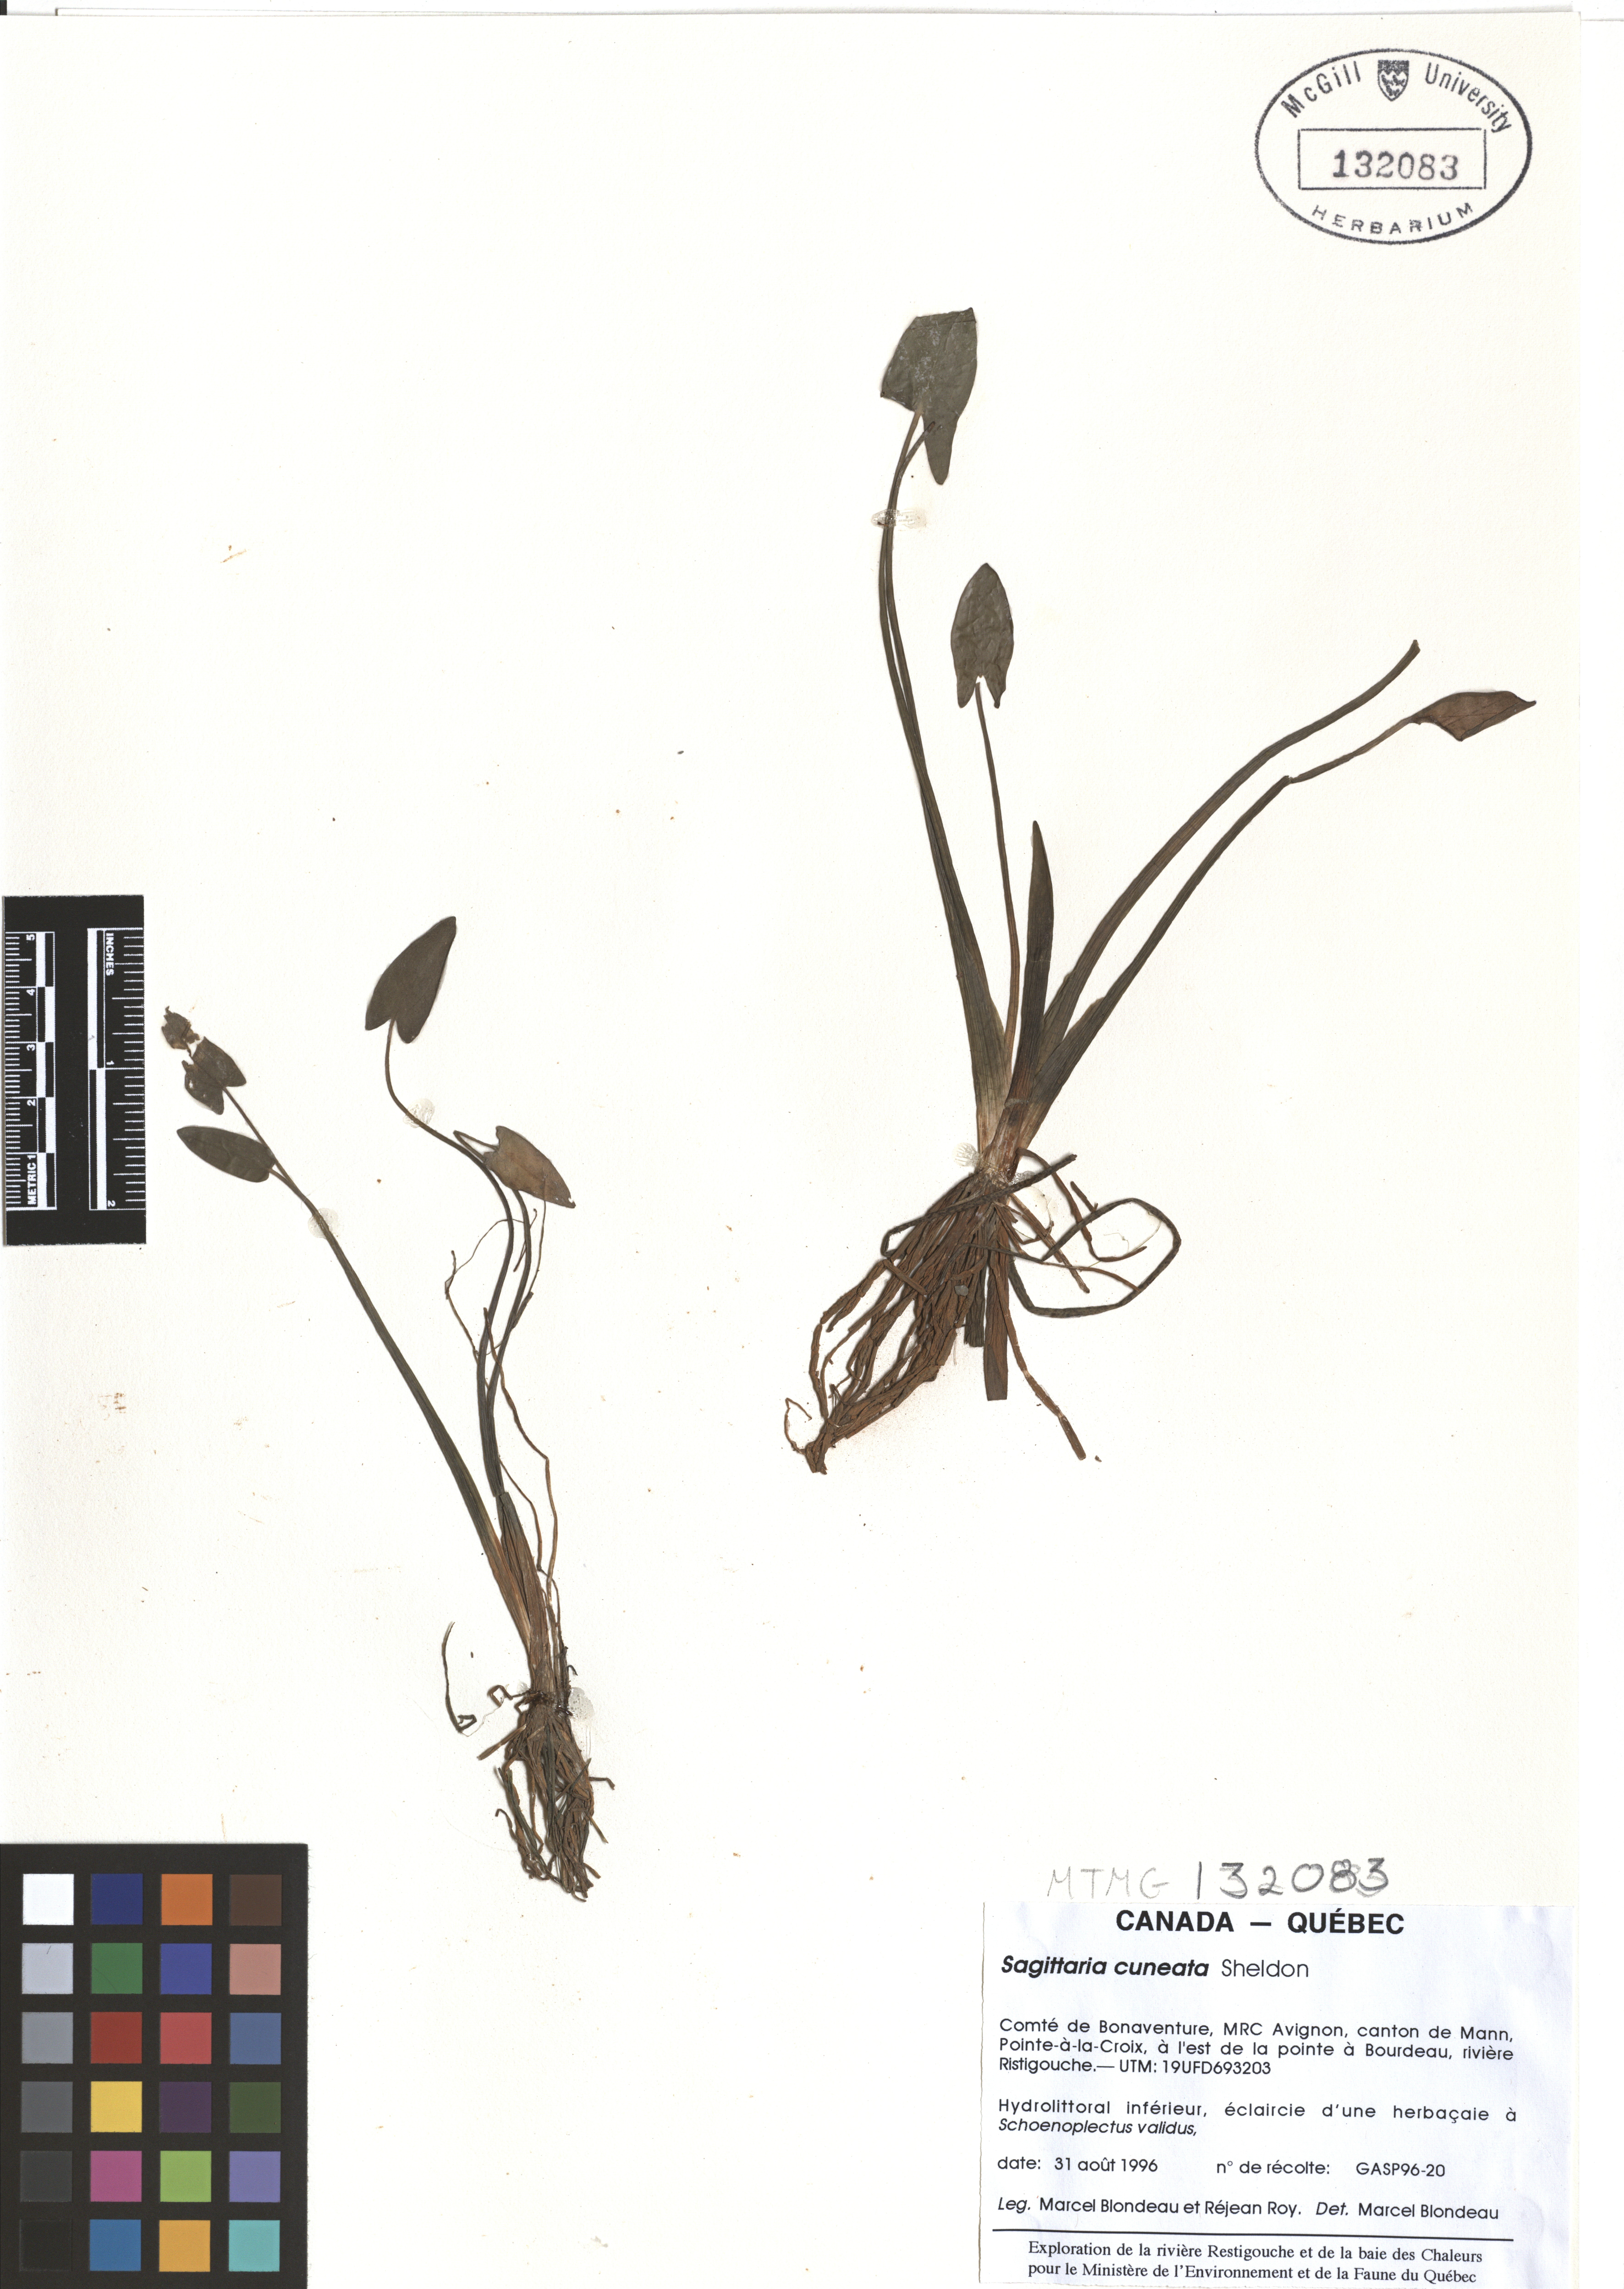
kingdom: Plantae
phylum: Tracheophyta
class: Liliopsida
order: Alismatales
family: Alismataceae
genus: Sagittaria
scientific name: Sagittaria cuneata
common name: Northern arrowhead
